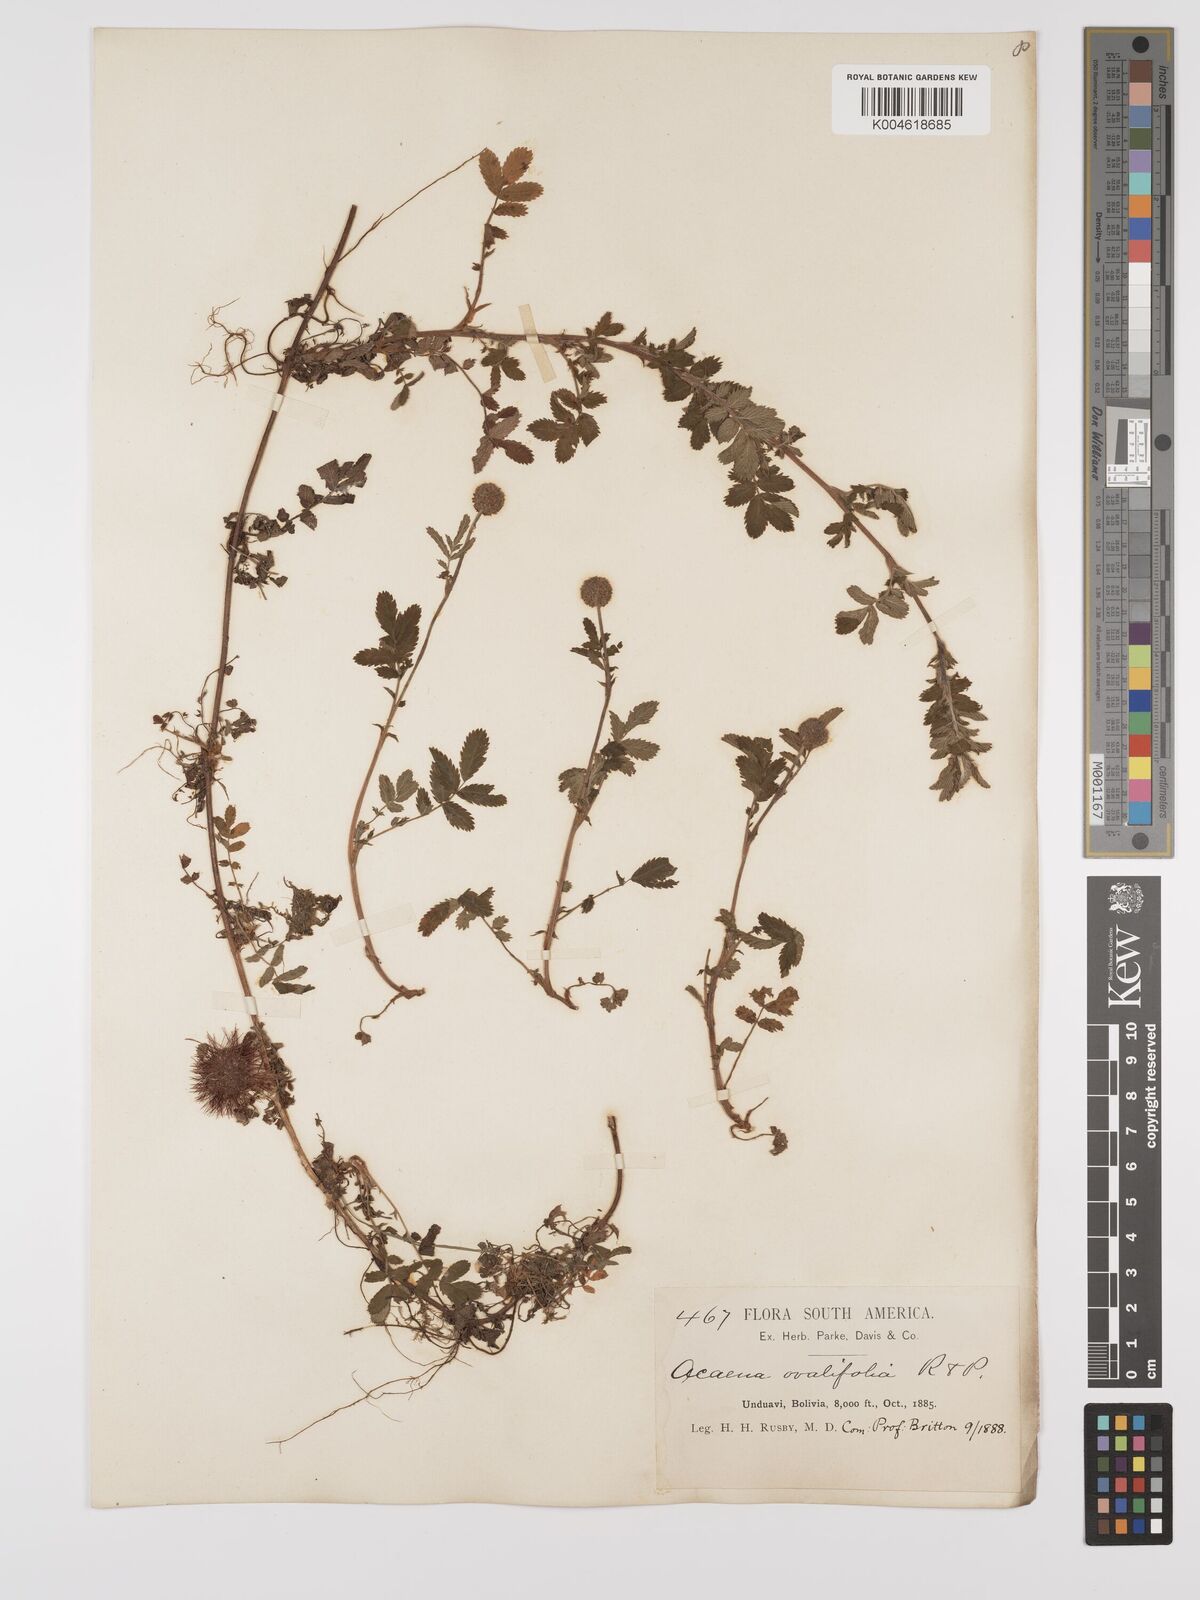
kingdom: Plantae
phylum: Tracheophyta
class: Magnoliopsida
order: Rosales
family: Rosaceae
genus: Acaena
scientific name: Acaena ovalifolia
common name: Two-spined acaena
